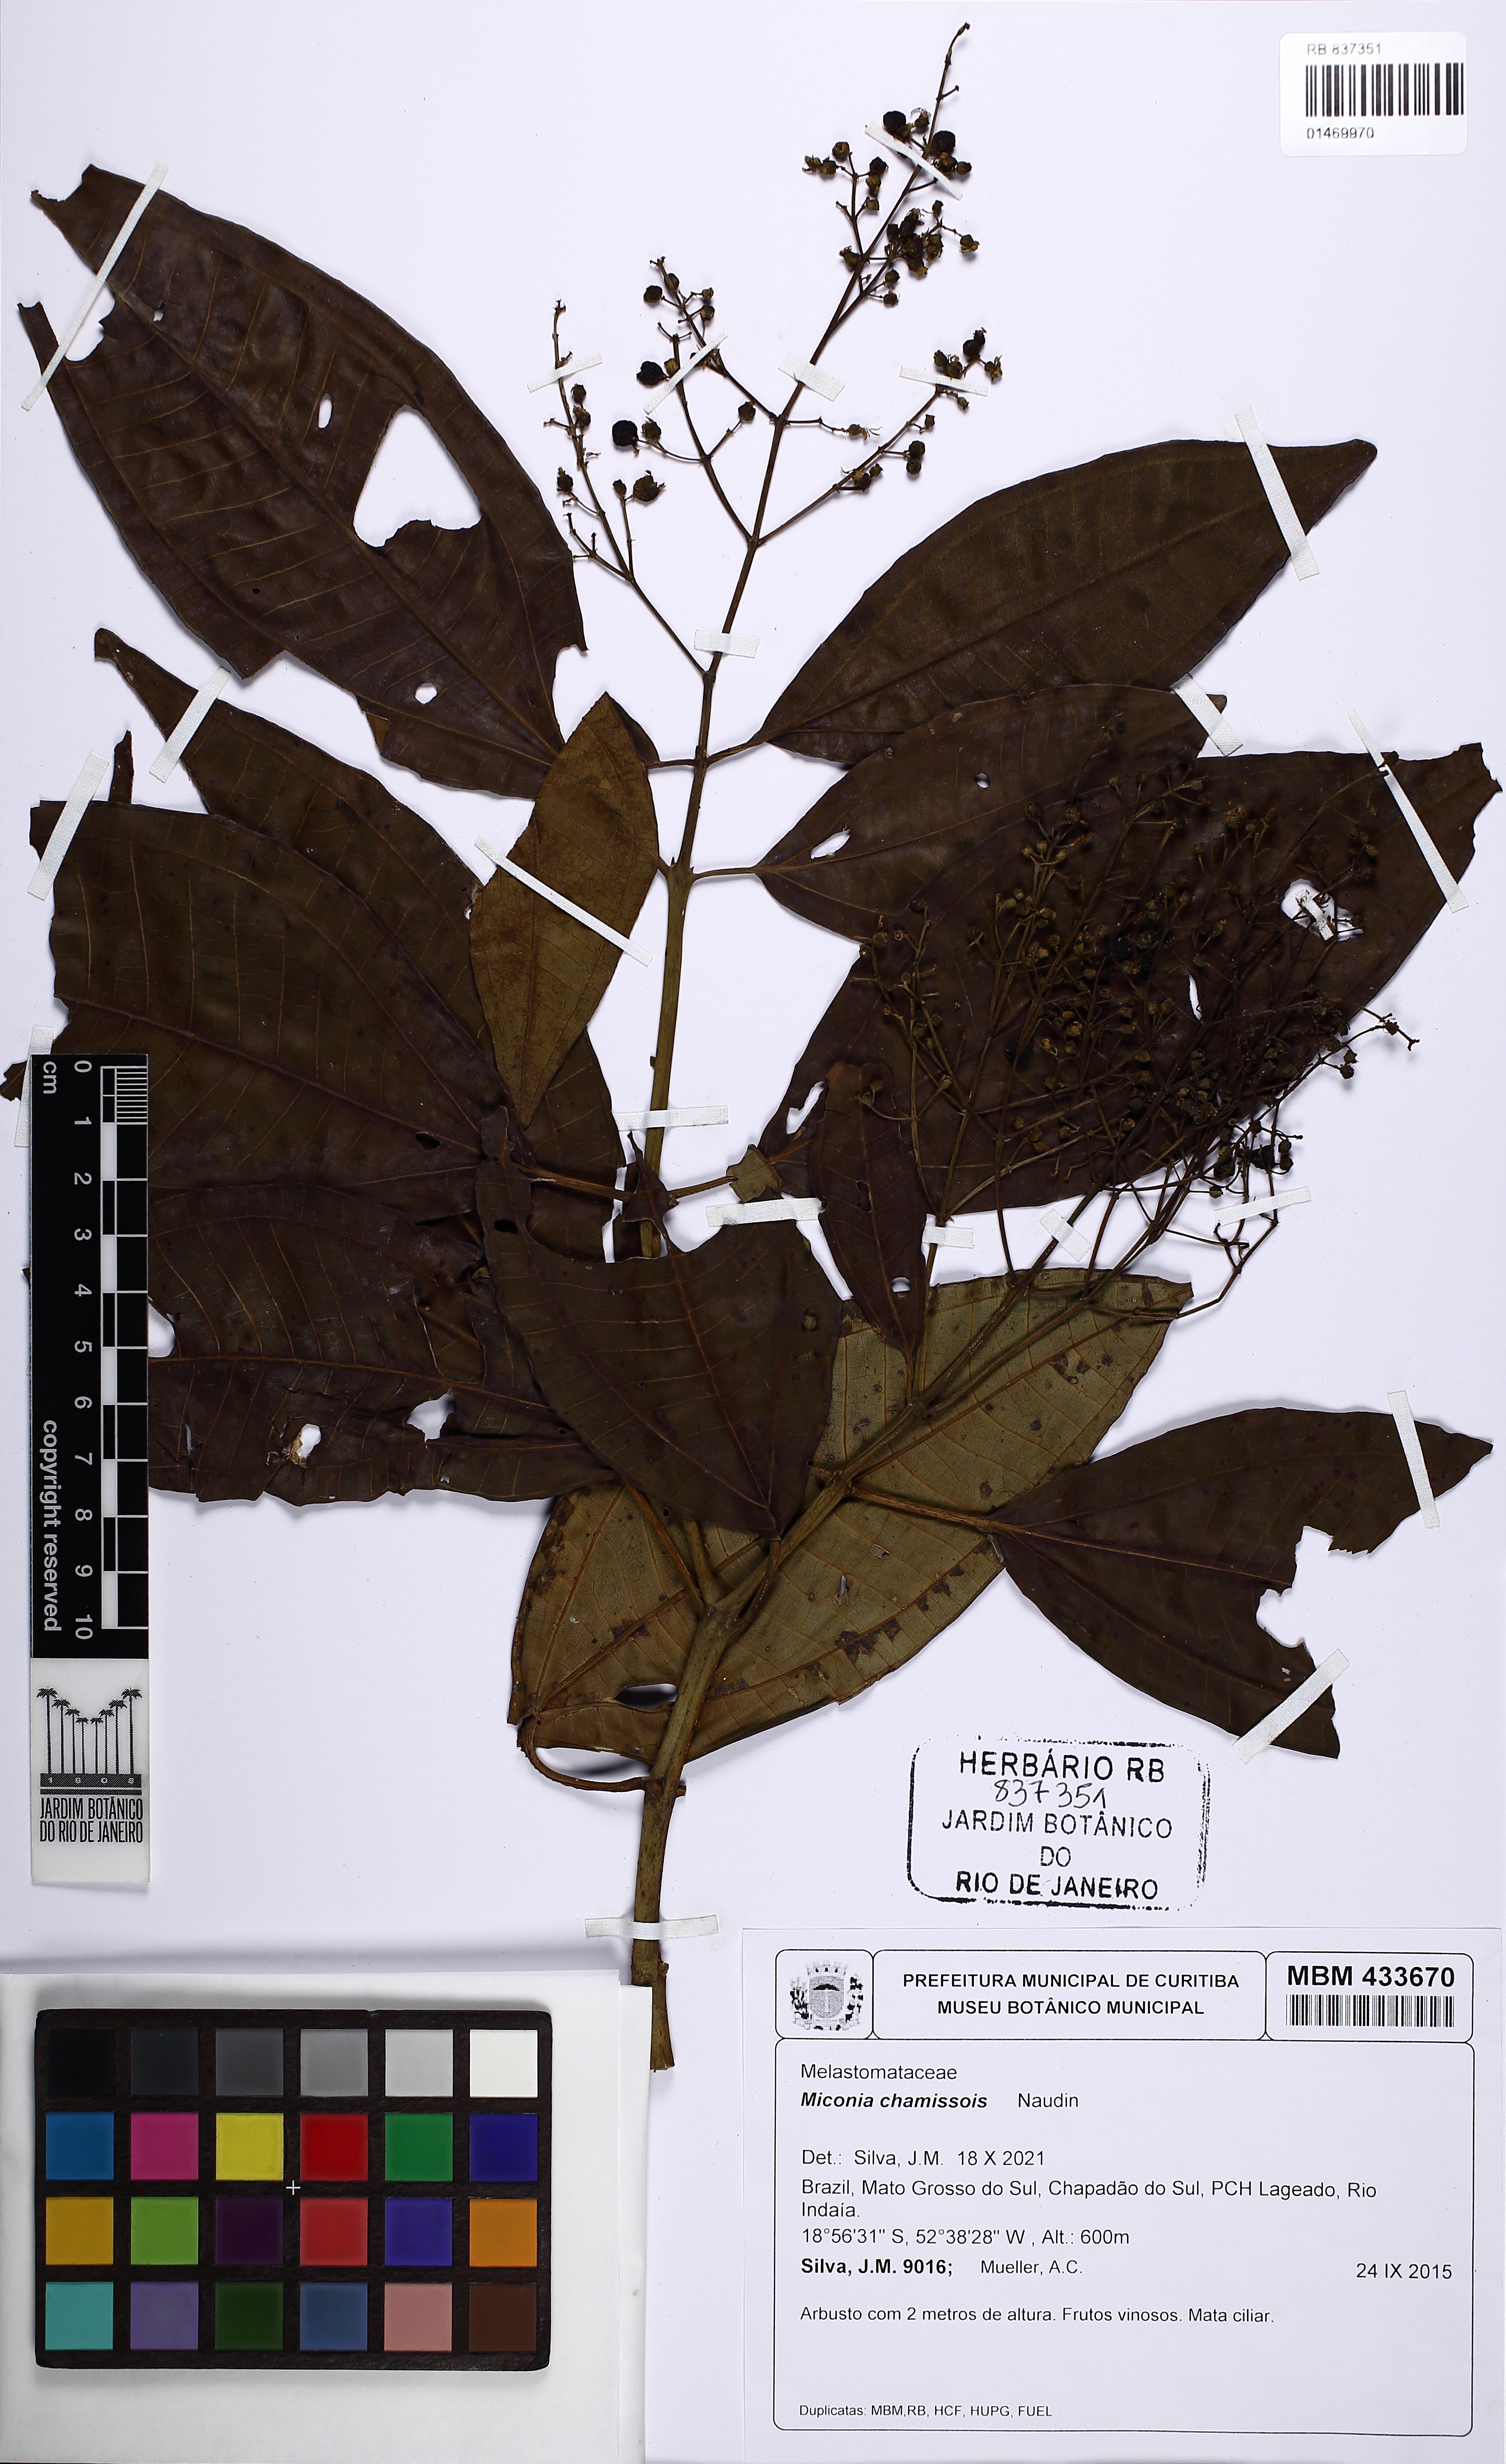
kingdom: Plantae
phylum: Tracheophyta
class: Magnoliopsida
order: Myrtales
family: Melastomataceae
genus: Miconia
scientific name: Miconia chamissois
